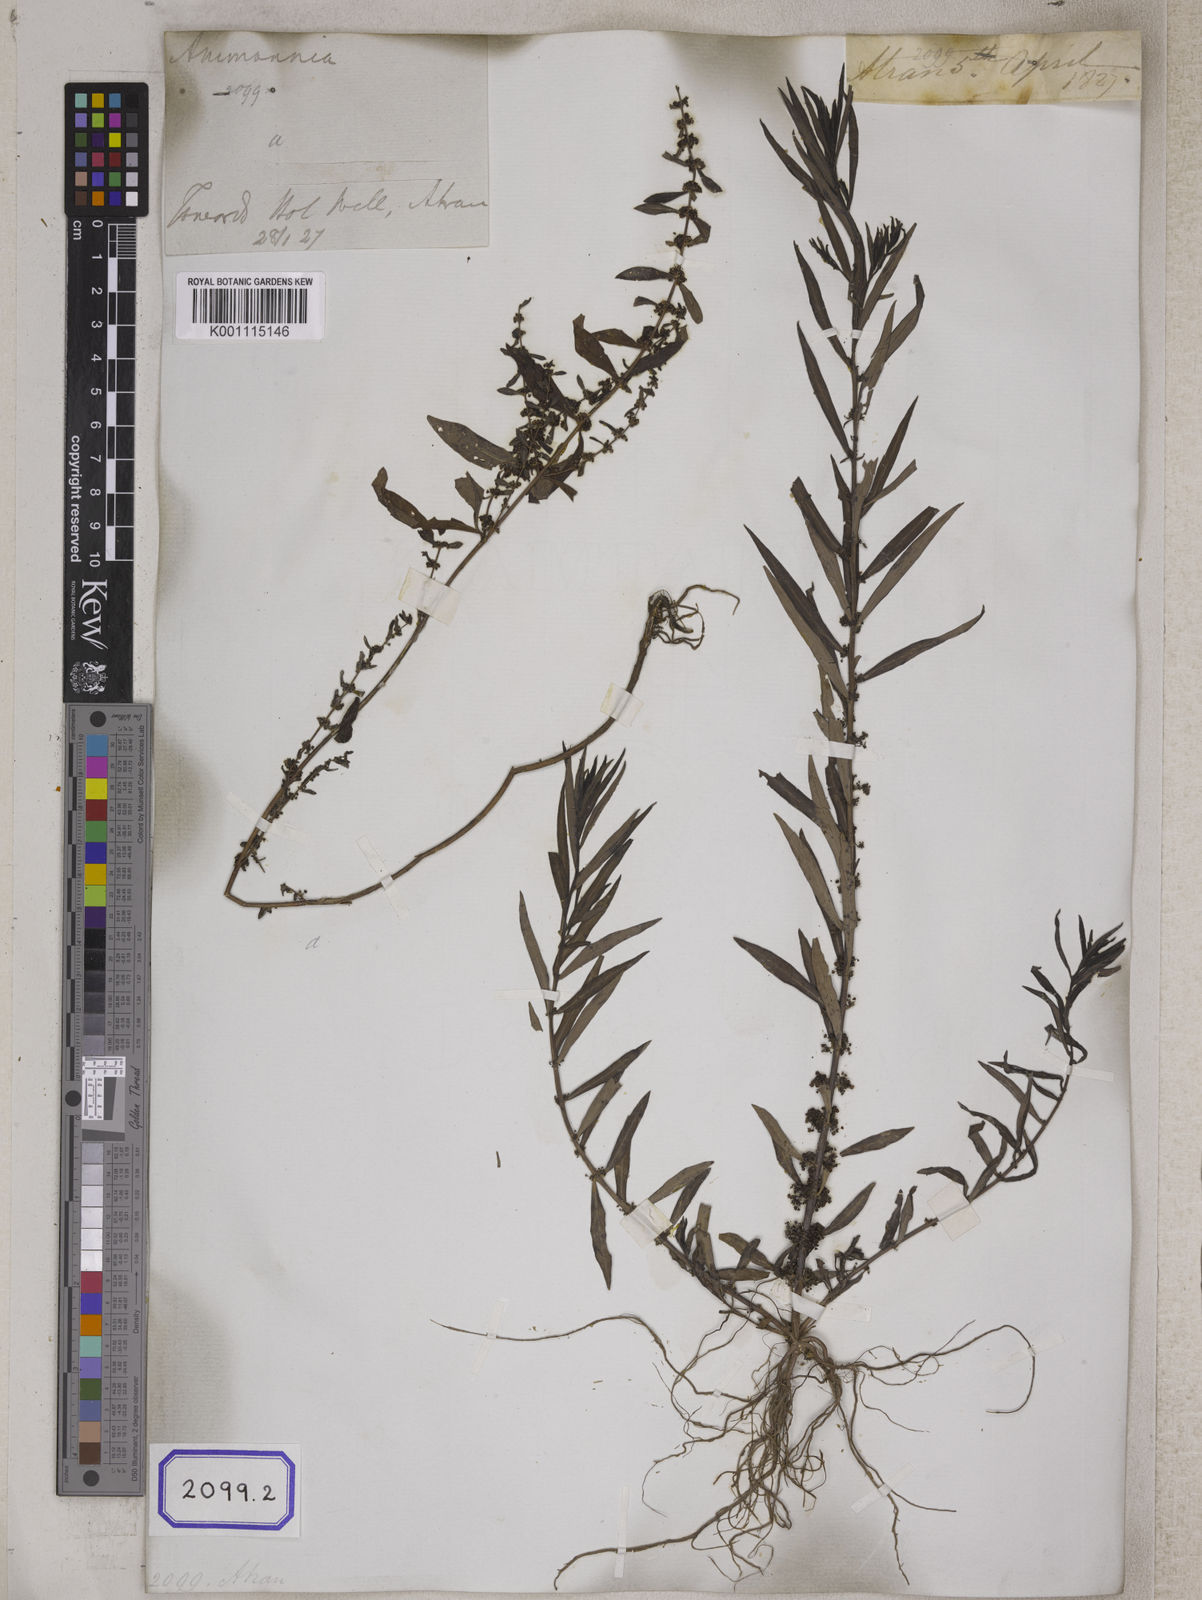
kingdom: Plantae
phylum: Tracheophyta
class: Magnoliopsida
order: Myrtales
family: Lythraceae
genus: Ammannia
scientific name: Ammannia baccifera
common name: Blistering ammania
